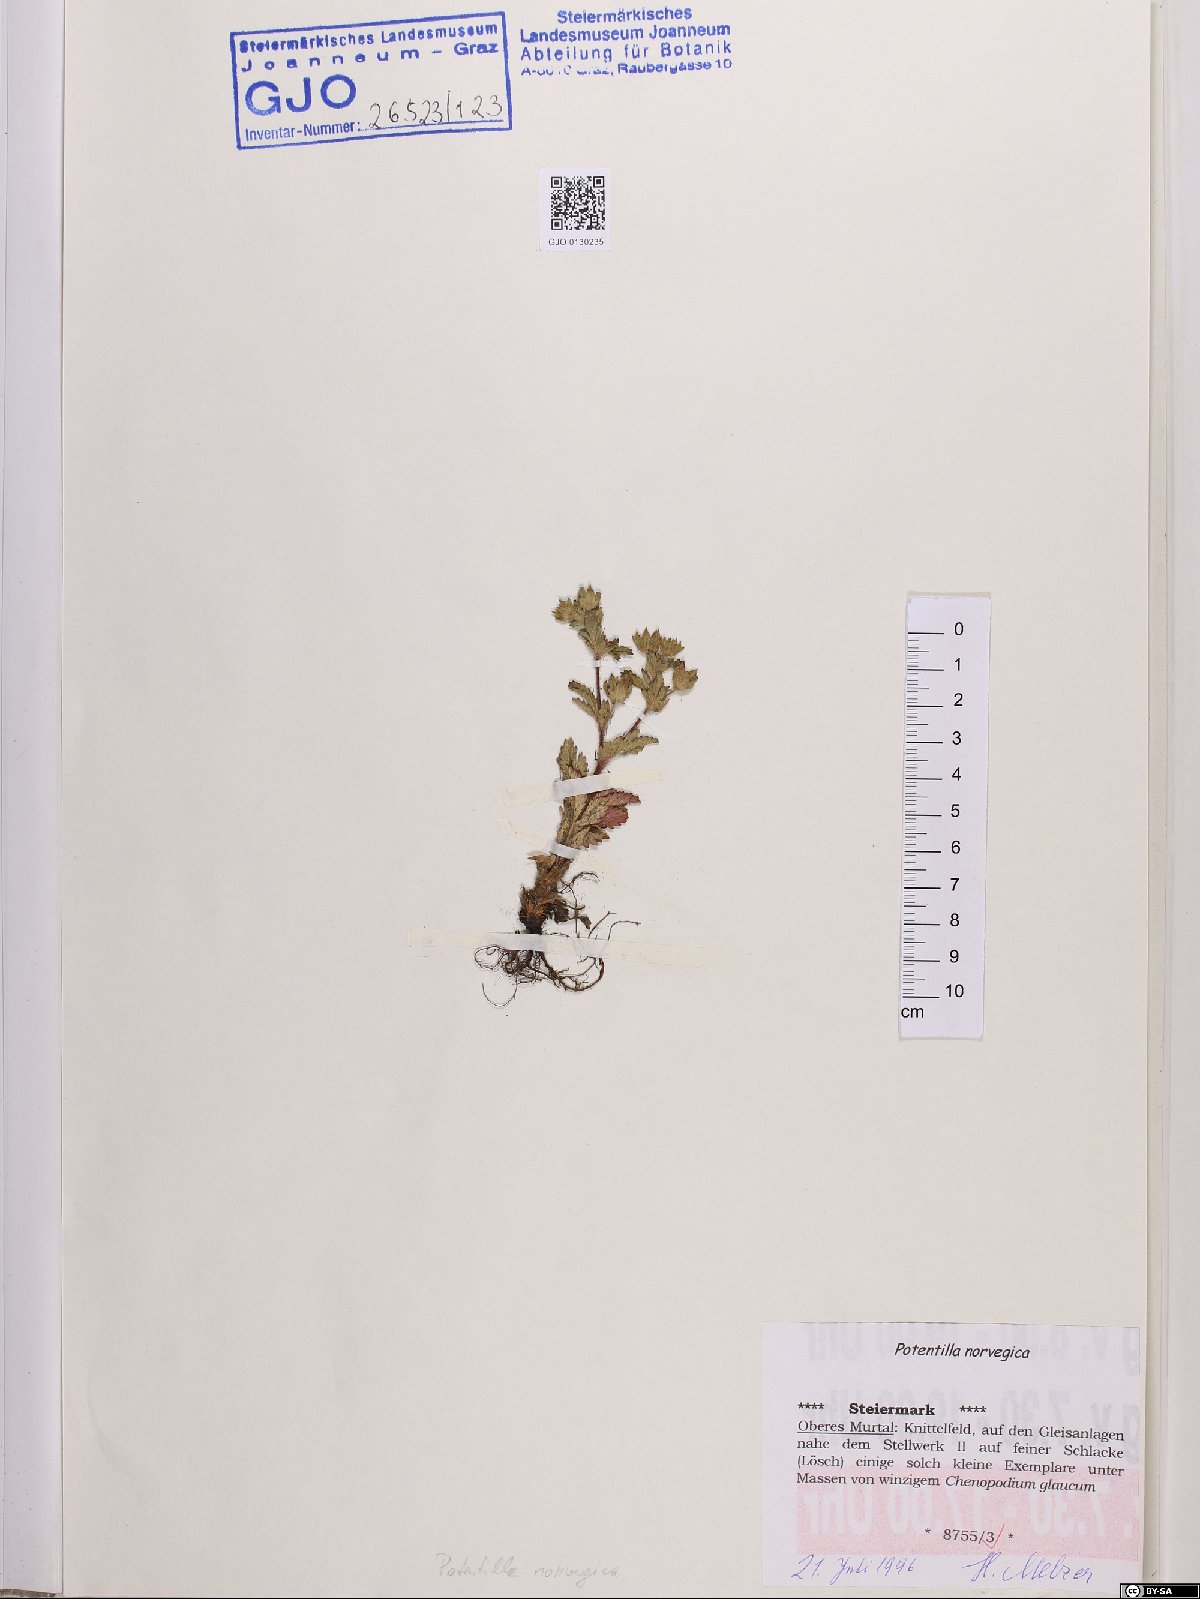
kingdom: Plantae
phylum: Tracheophyta
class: Magnoliopsida
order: Rosales
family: Rosaceae
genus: Potentilla
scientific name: Potentilla norvegica
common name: Ternate-leaved cinquefoil
